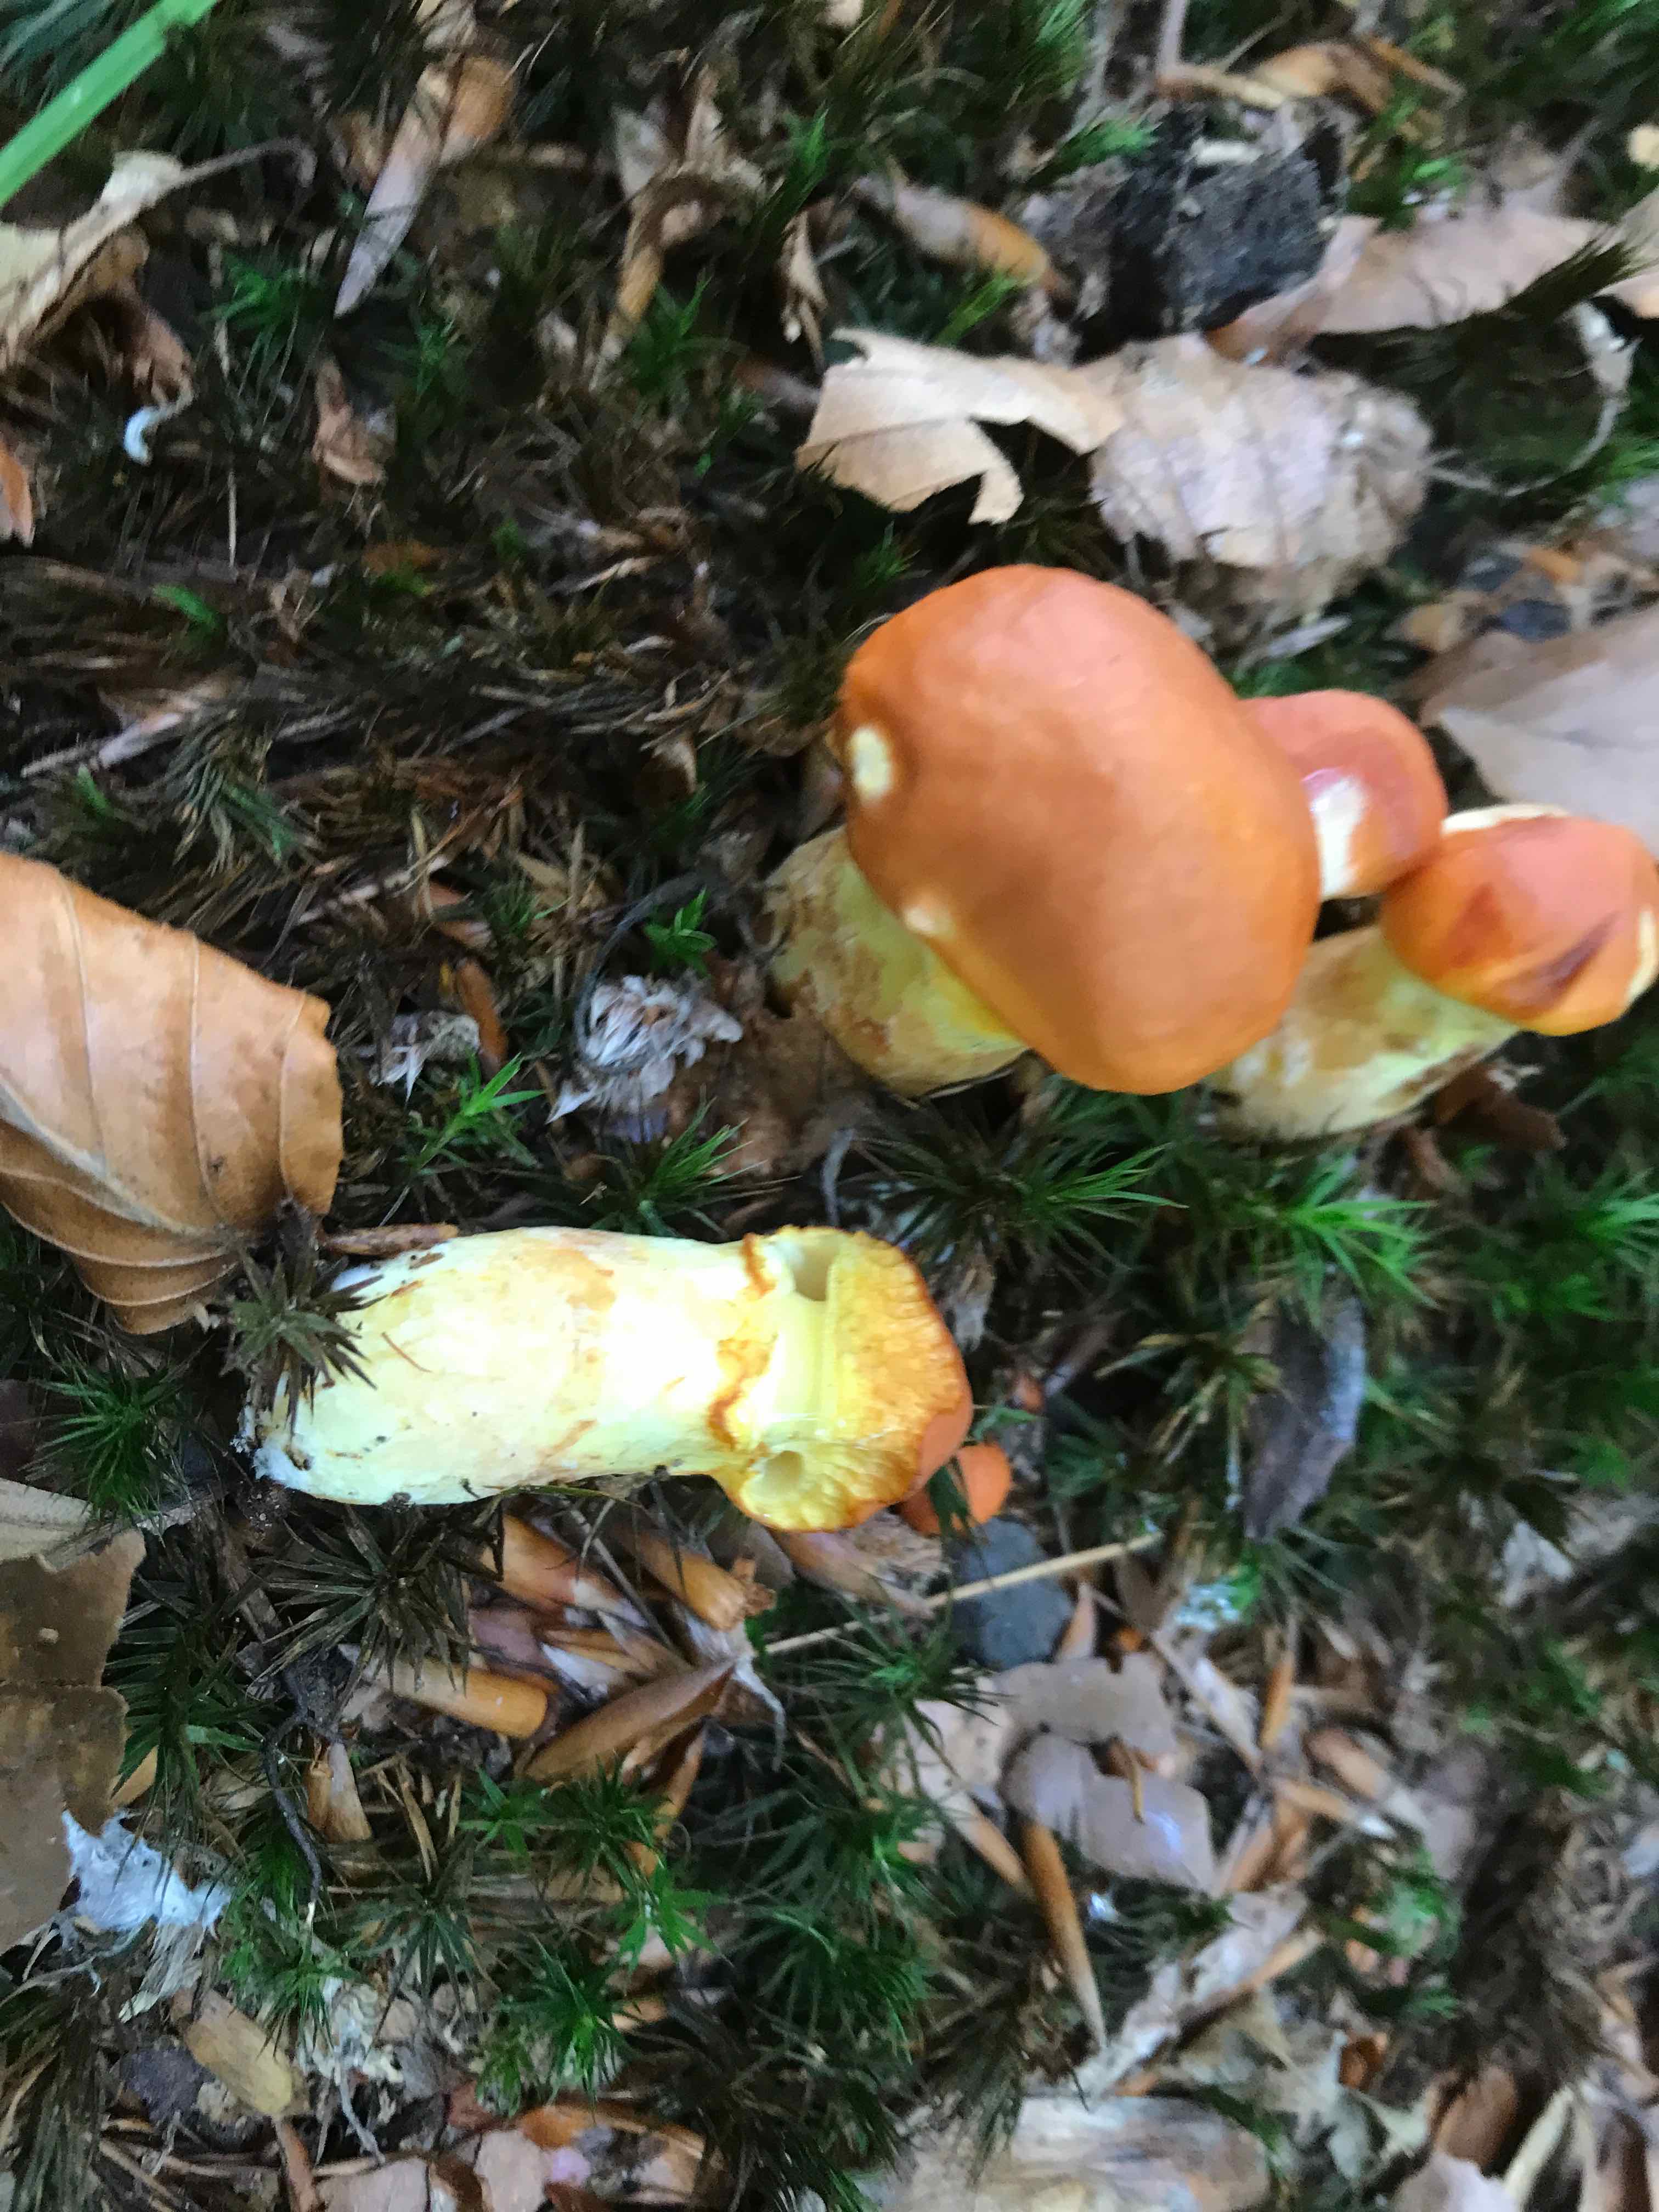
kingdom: Fungi
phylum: Basidiomycota
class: Agaricomycetes
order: Boletales
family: Suillaceae
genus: Suillus
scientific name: Suillus grevillei
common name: lærke-slimrørhat
